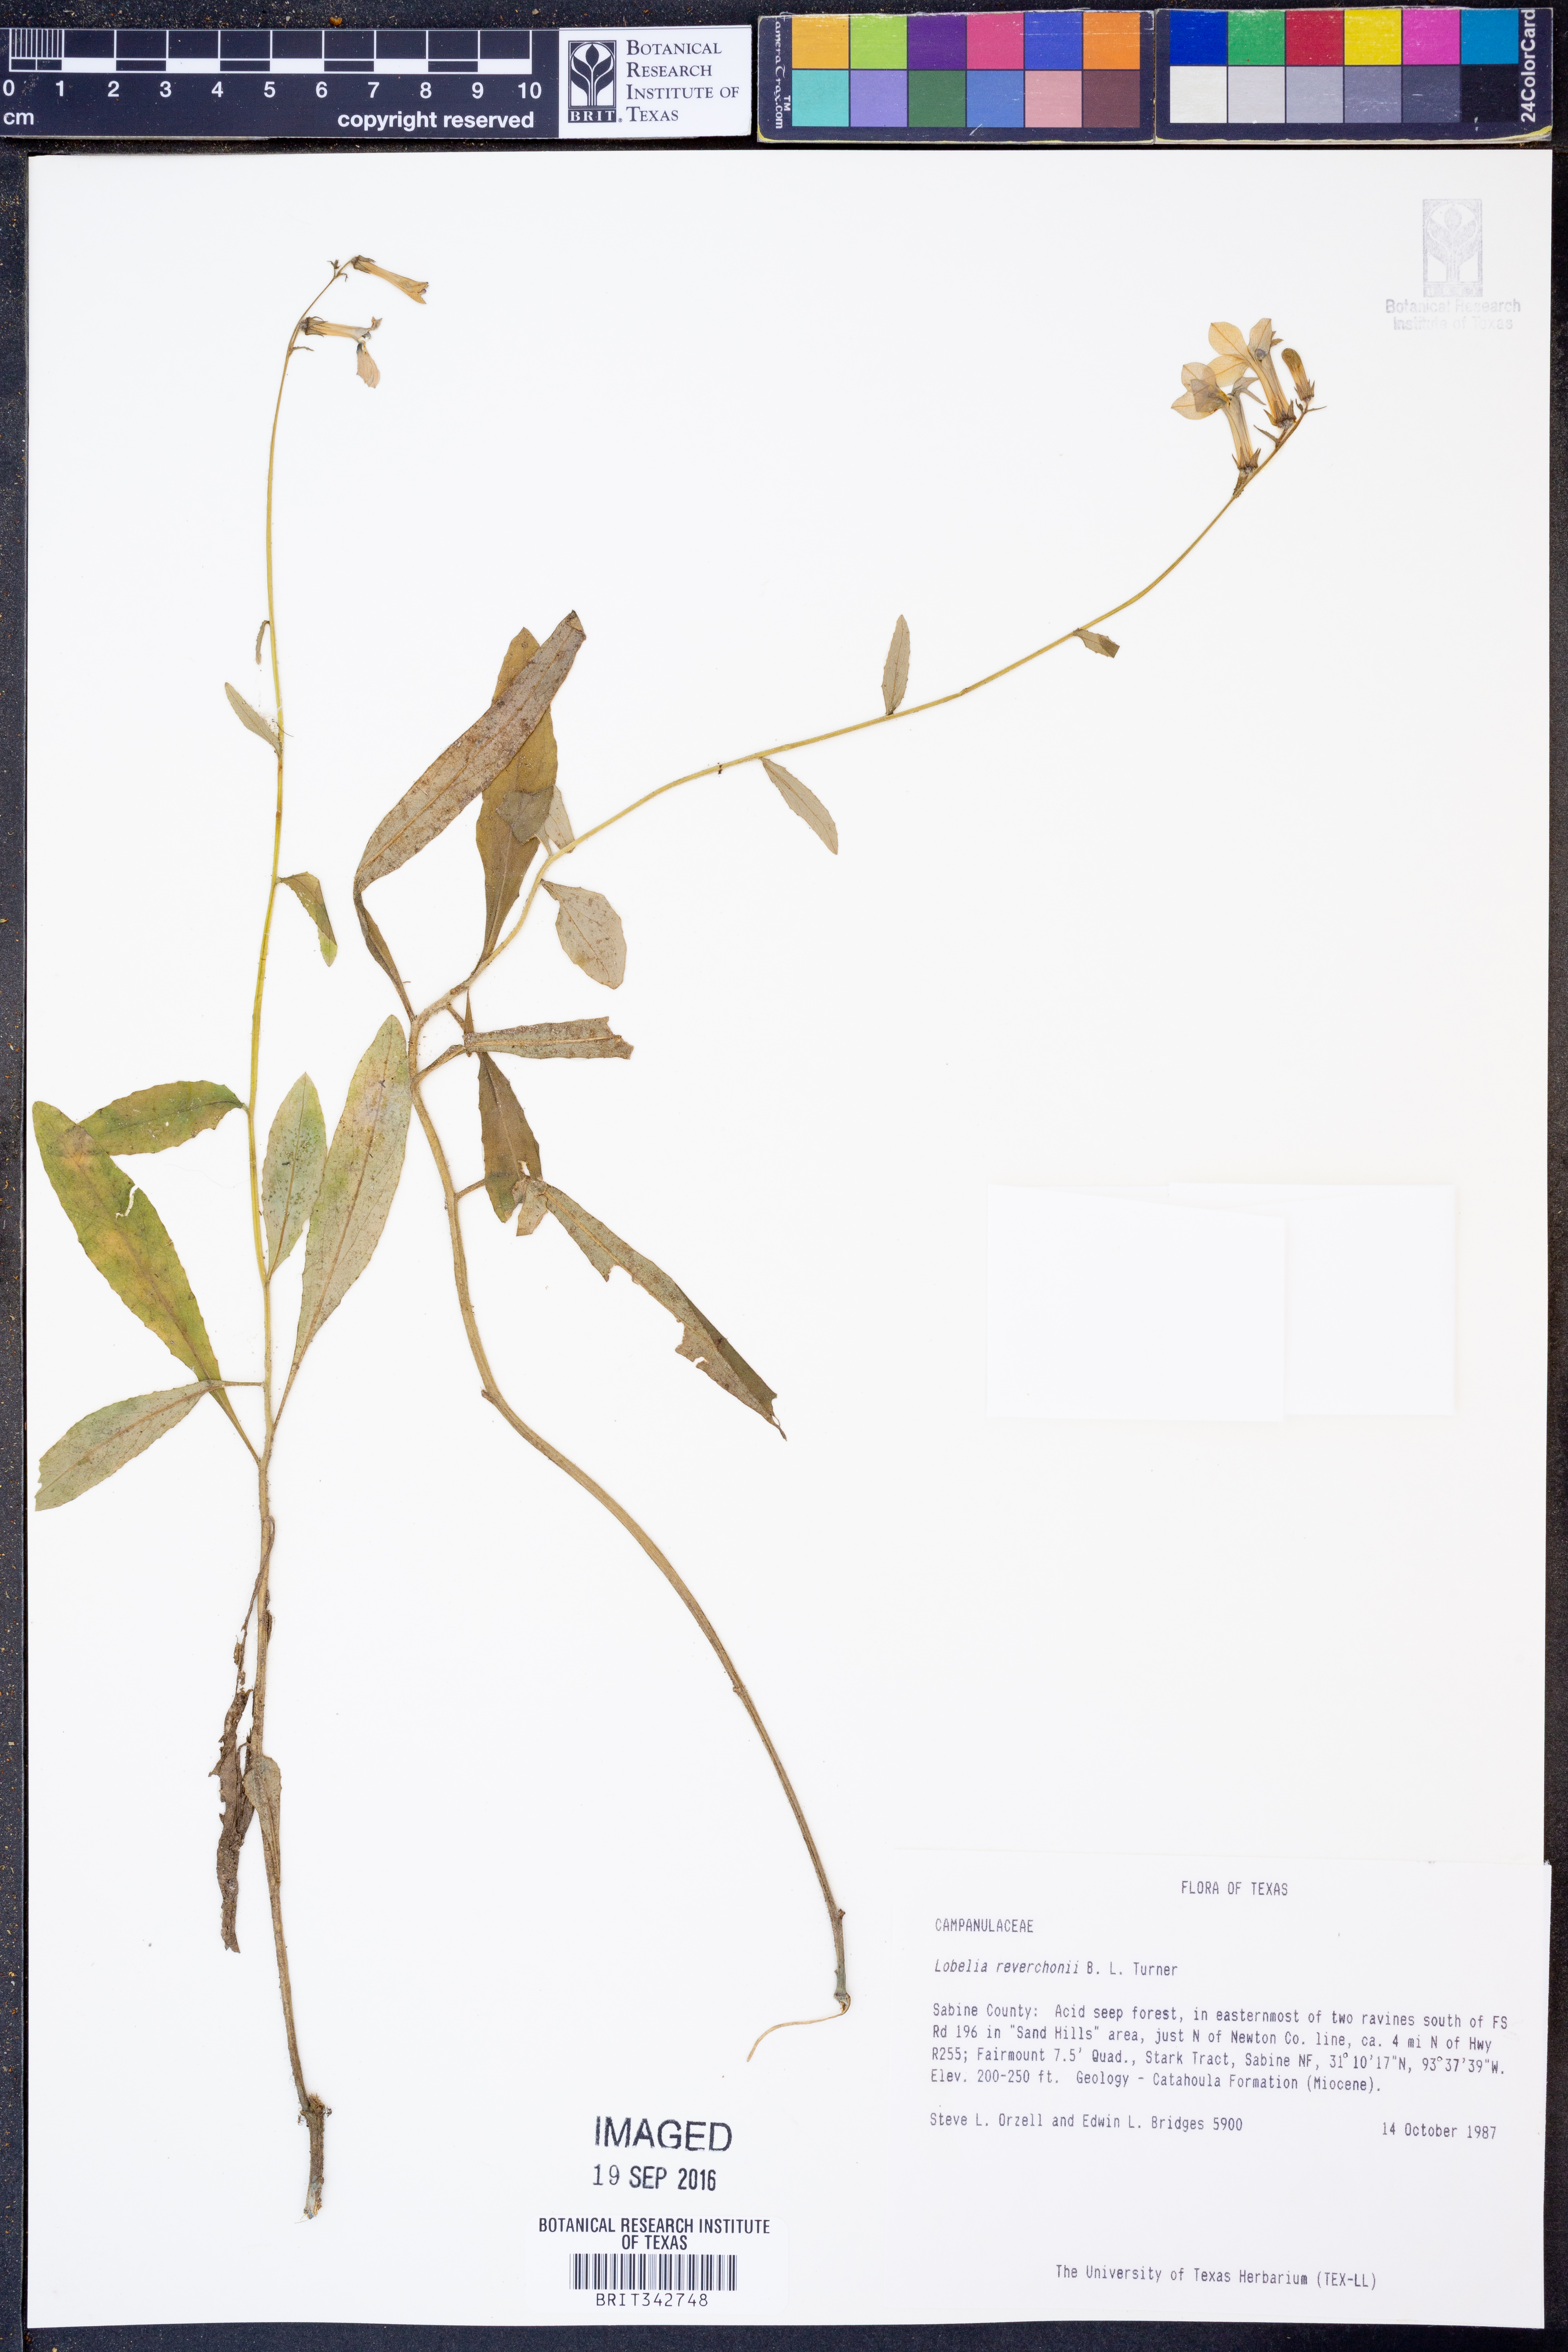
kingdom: Plantae
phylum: Tracheophyta
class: Magnoliopsida
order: Asterales
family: Campanulaceae
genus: Lobelia
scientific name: Lobelia reverchonii
